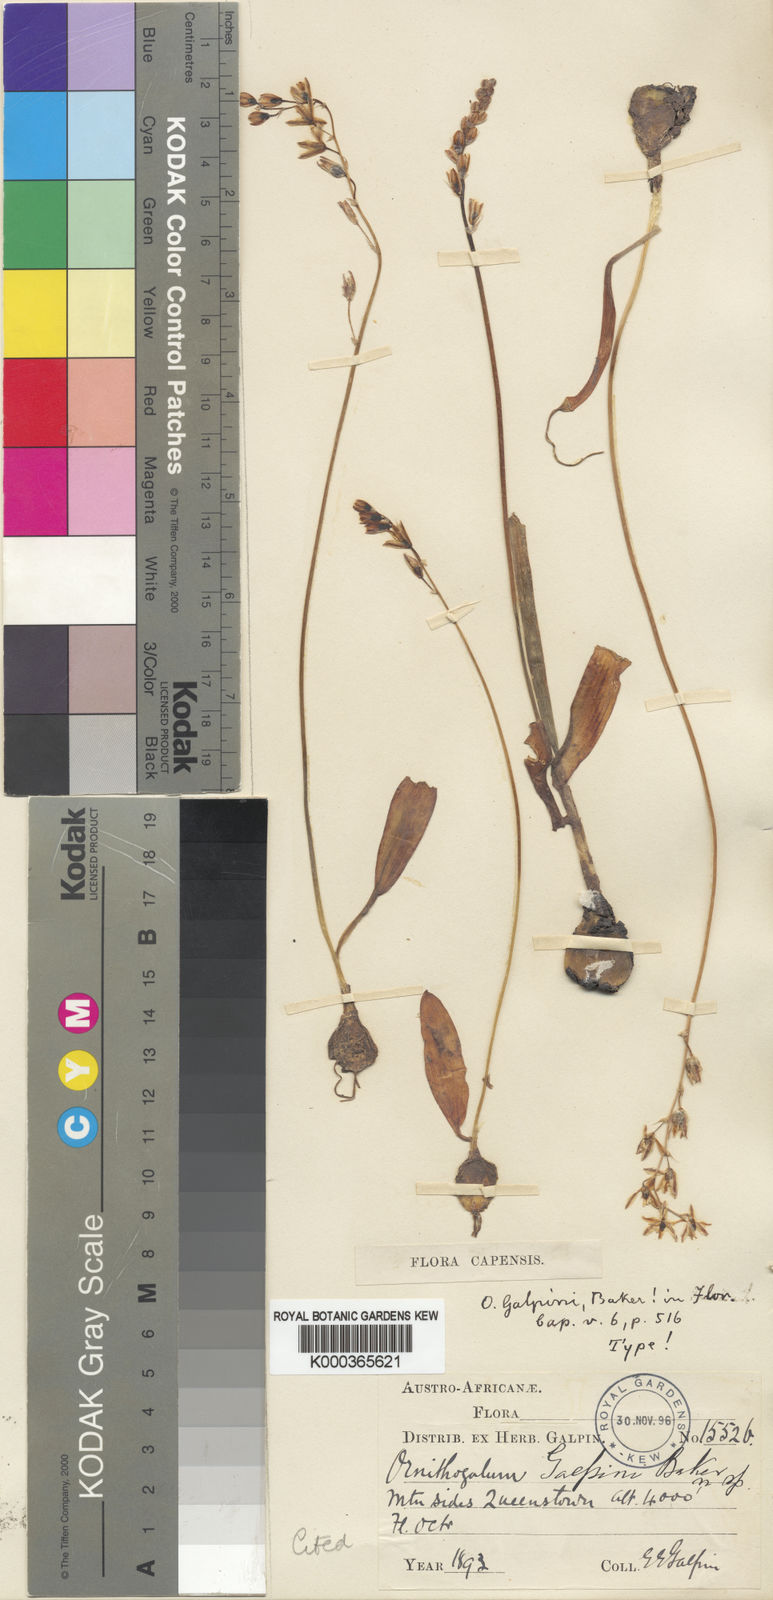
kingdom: Plantae
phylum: Tracheophyta
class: Liliopsida
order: Asparagales
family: Asparagaceae
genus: Ornithogalum
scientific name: Ornithogalum graminifolium
